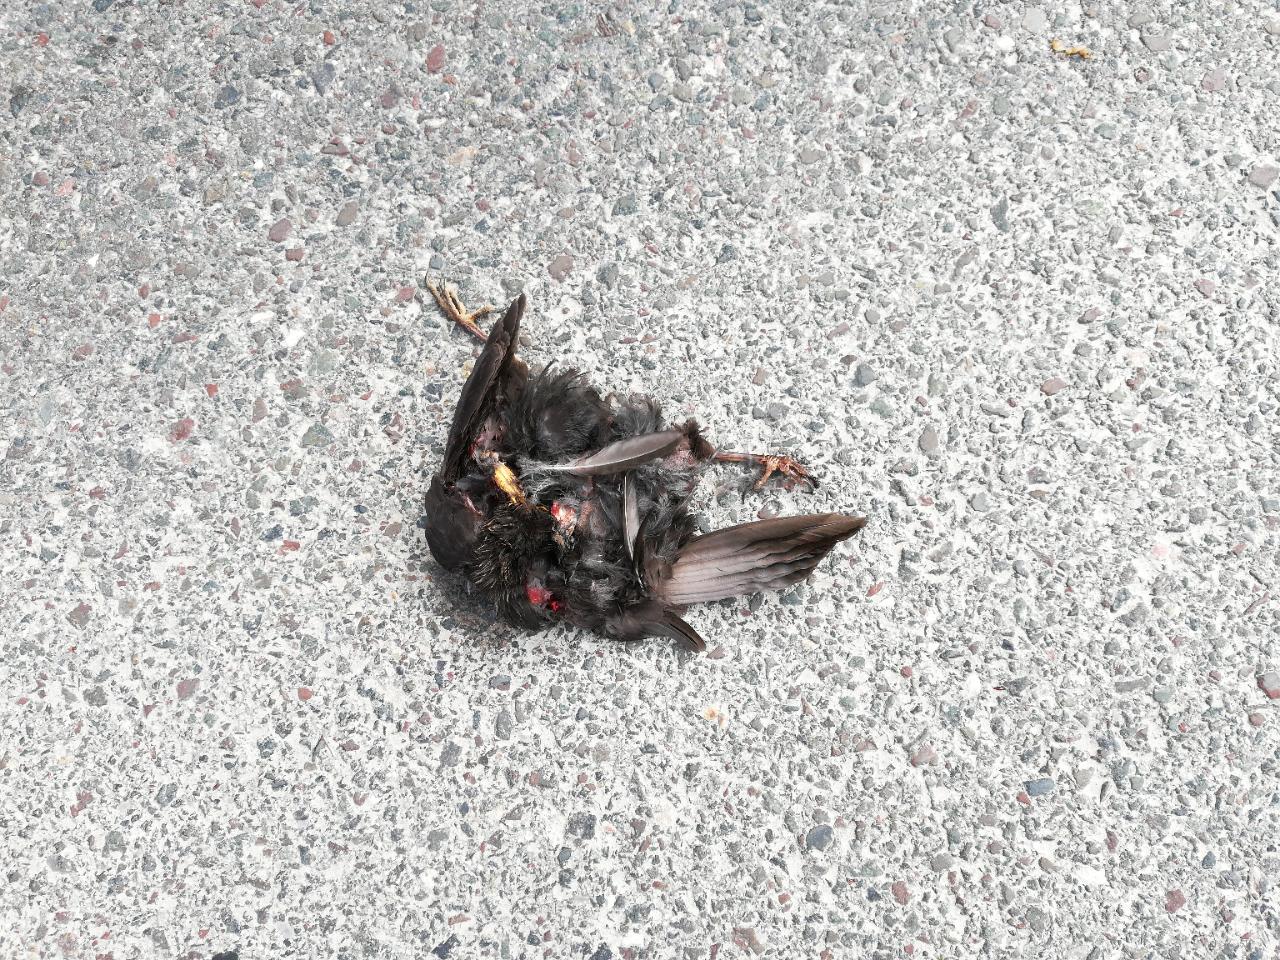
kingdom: Animalia
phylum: Chordata
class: Aves
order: Passeriformes
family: Turdidae
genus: Turdus
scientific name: Turdus merula
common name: Common blackbird
